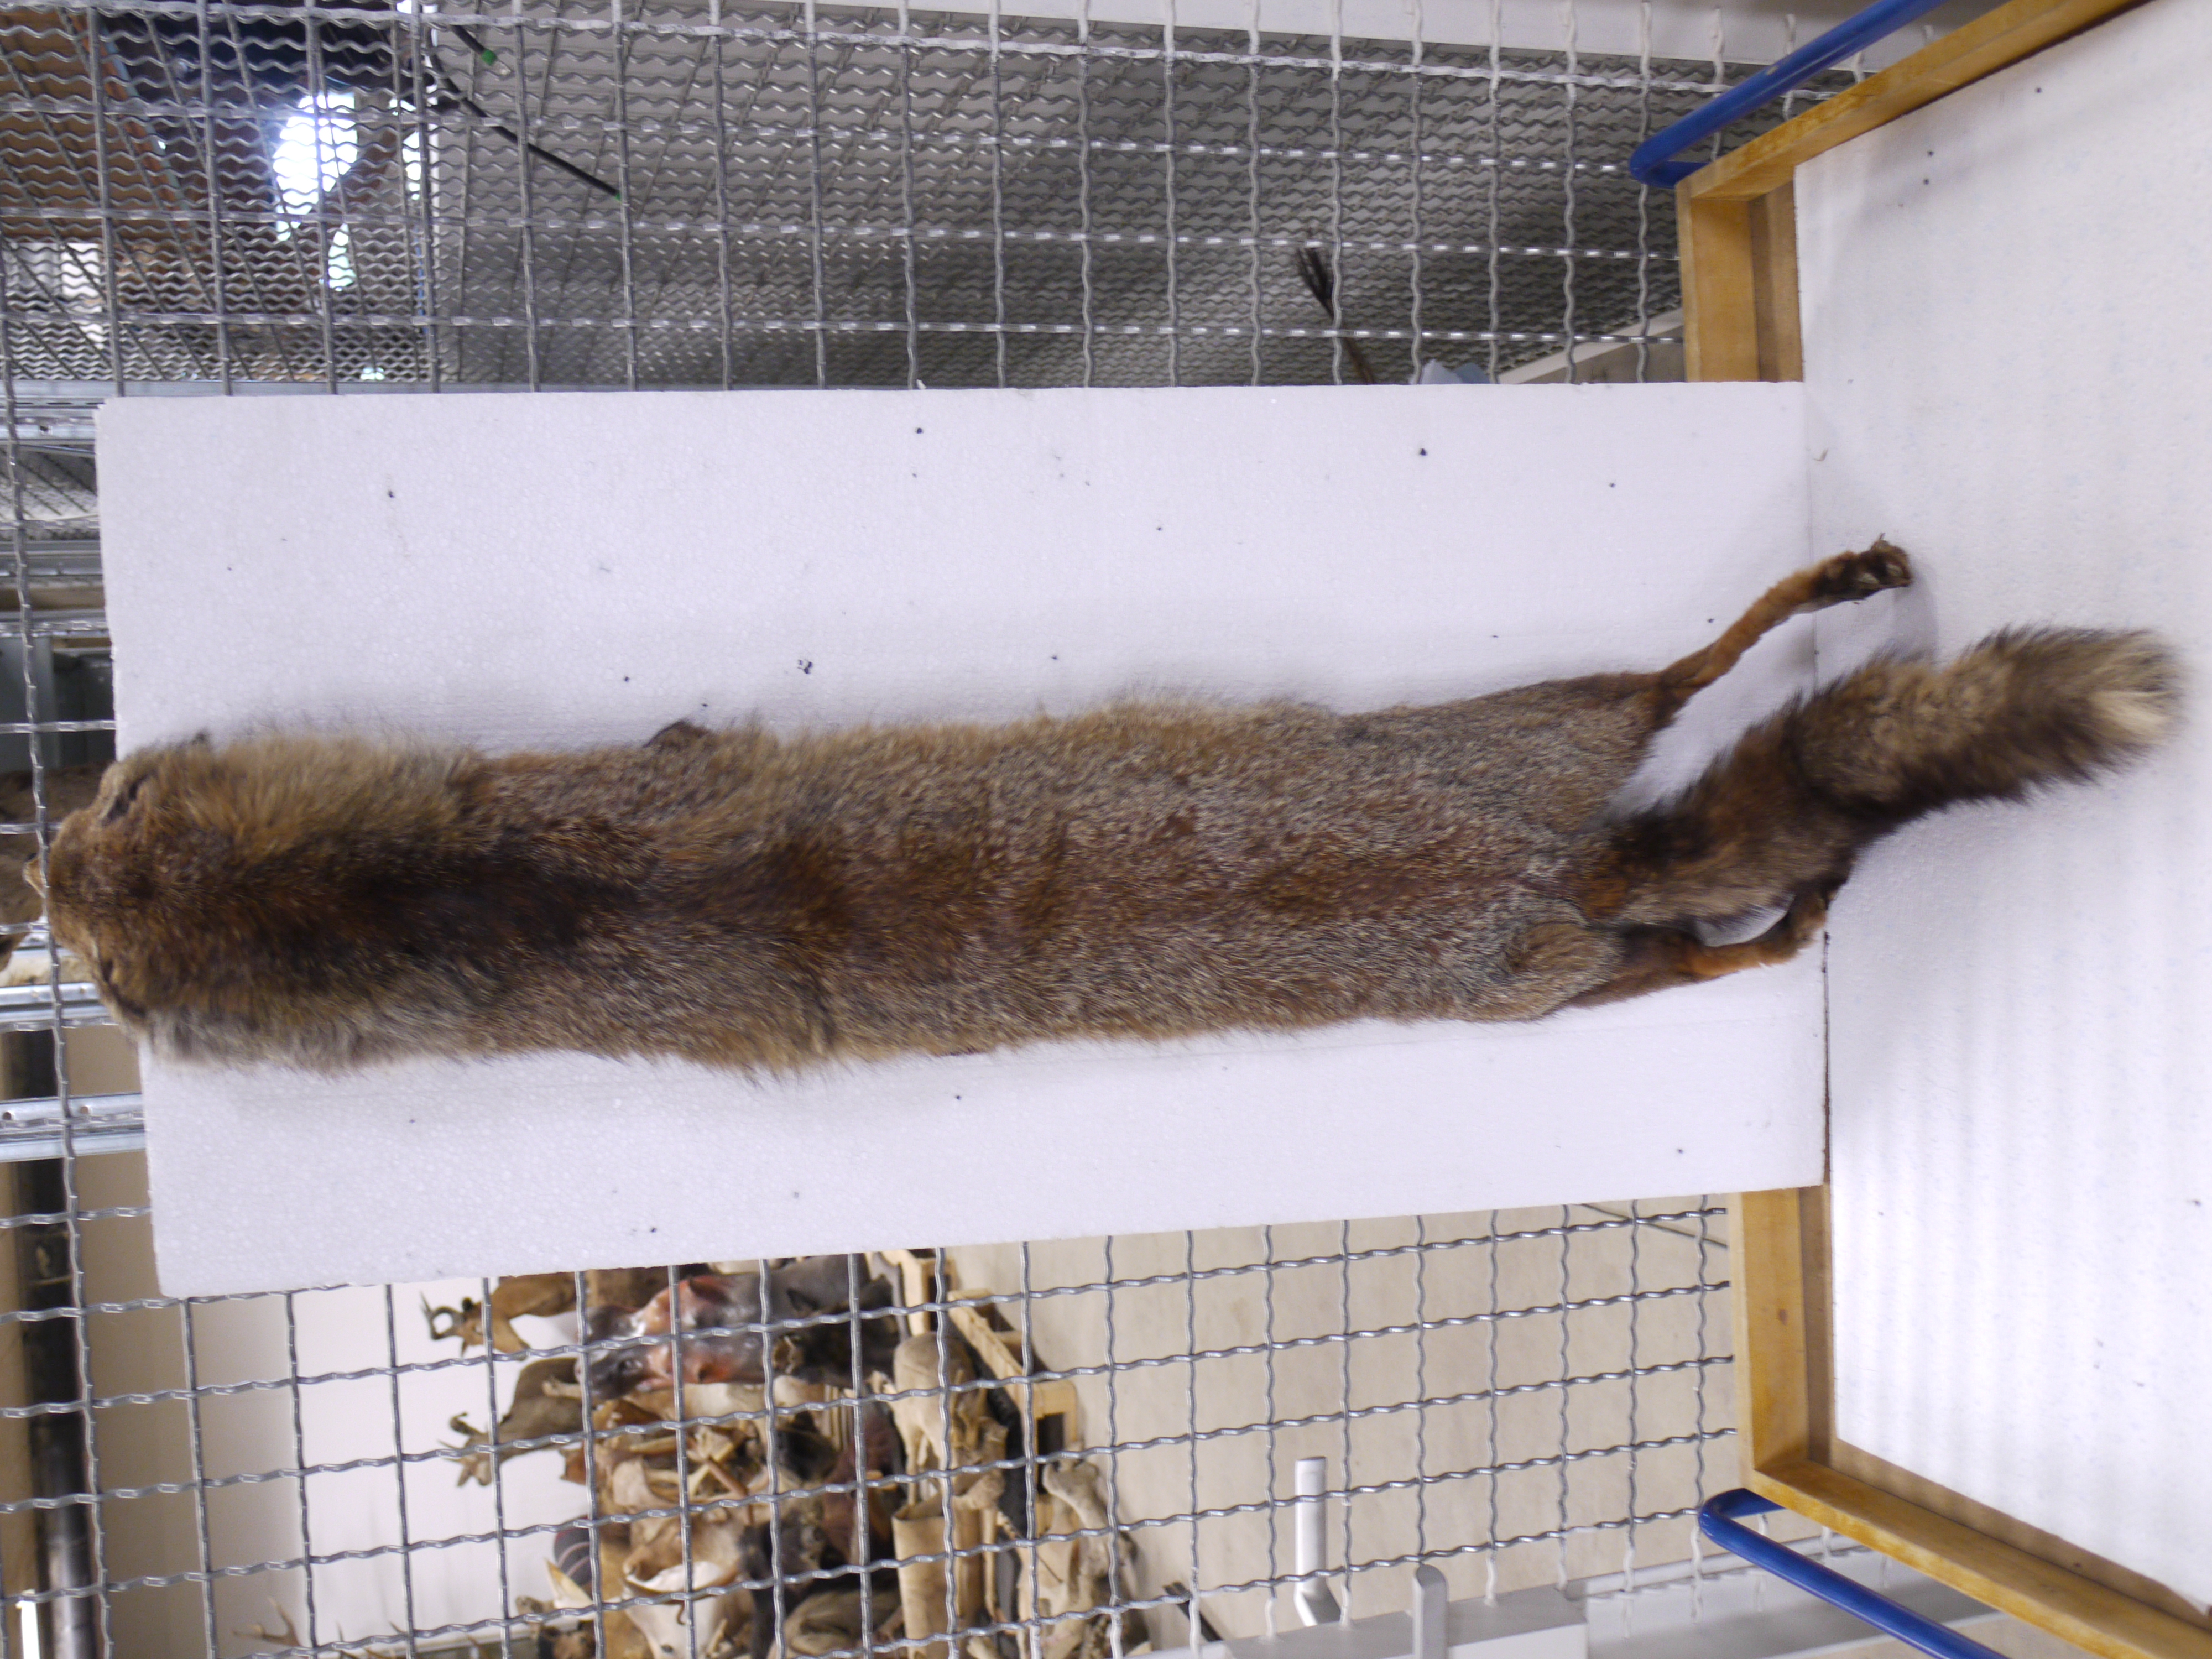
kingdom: Animalia
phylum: Chordata
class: Mammalia
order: Carnivora
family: Canidae
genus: Vulpes
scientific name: Vulpes vulpes
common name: Red fox
